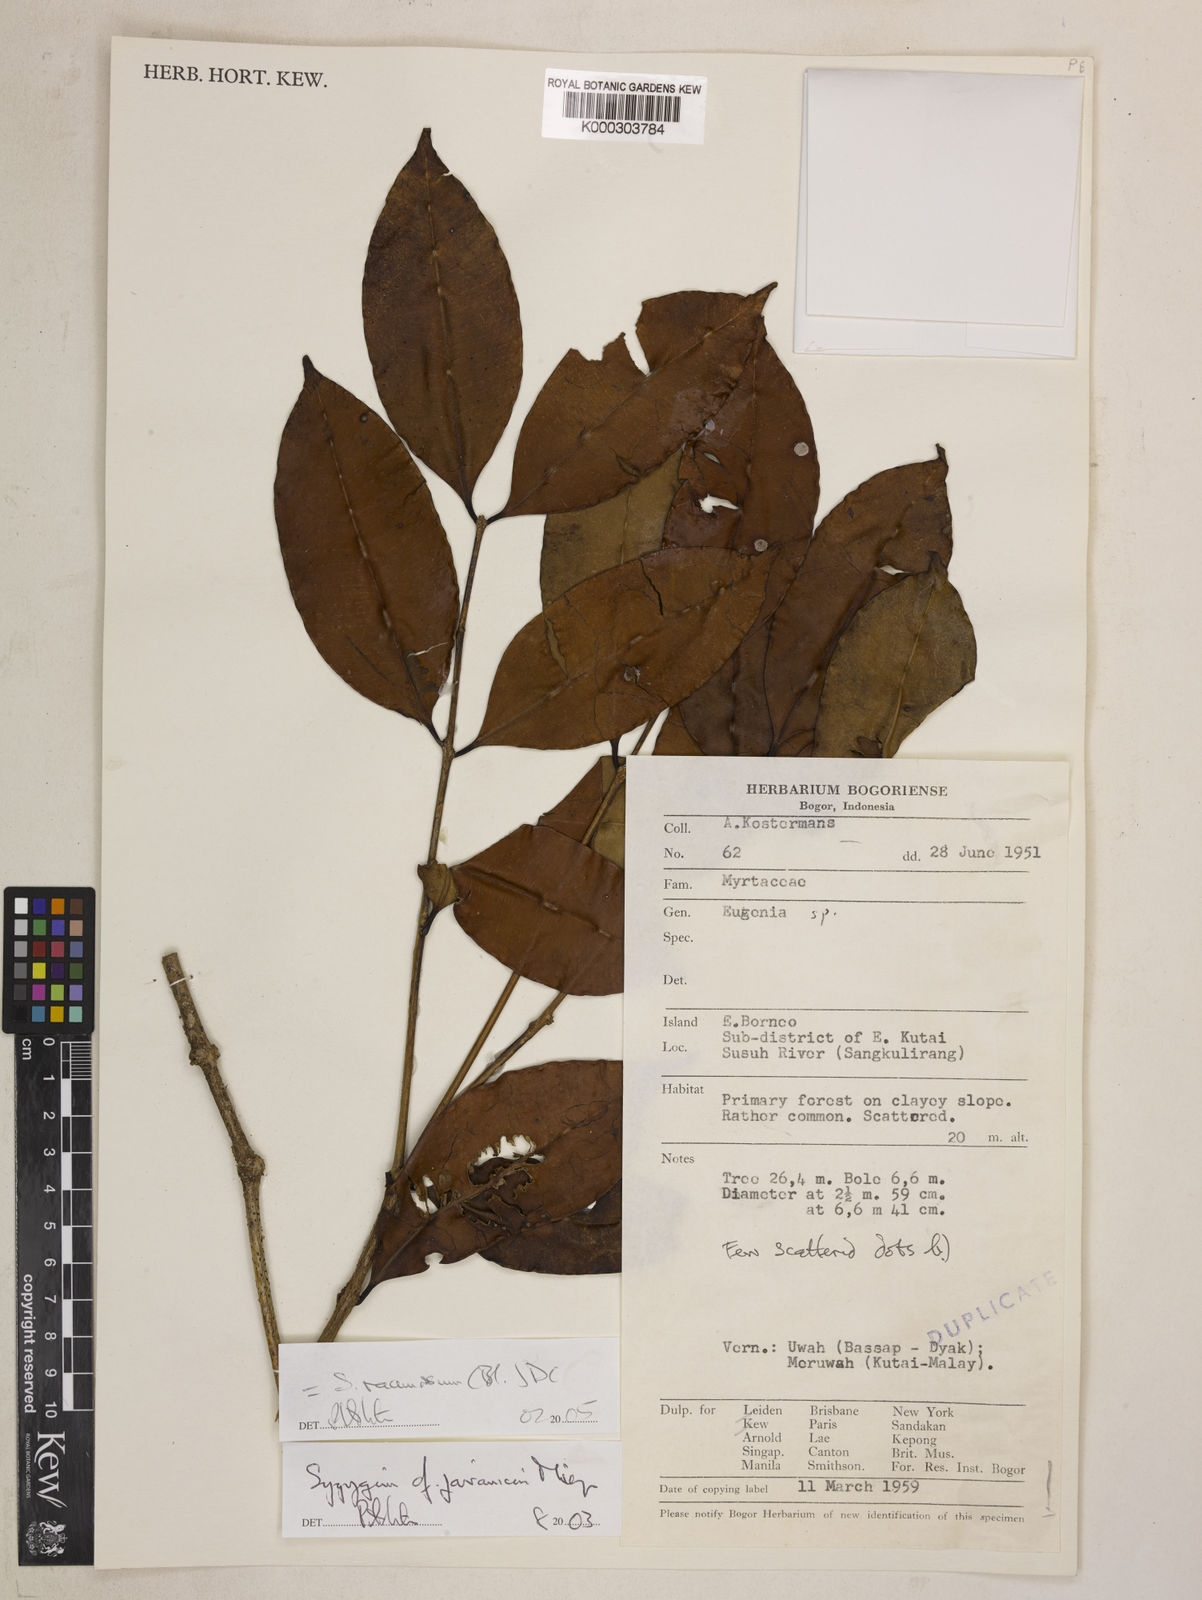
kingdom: Plantae
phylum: Tracheophyta
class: Magnoliopsida
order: Myrtales
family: Myrtaceae
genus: Syzygium
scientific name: Syzygium racemosum
